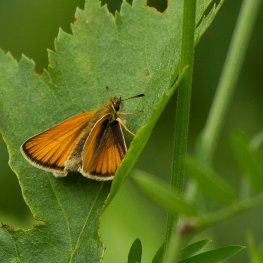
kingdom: Animalia
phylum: Arthropoda
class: Insecta
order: Lepidoptera
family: Hesperiidae
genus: Thymelicus
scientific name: Thymelicus lineola
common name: European Skipper
